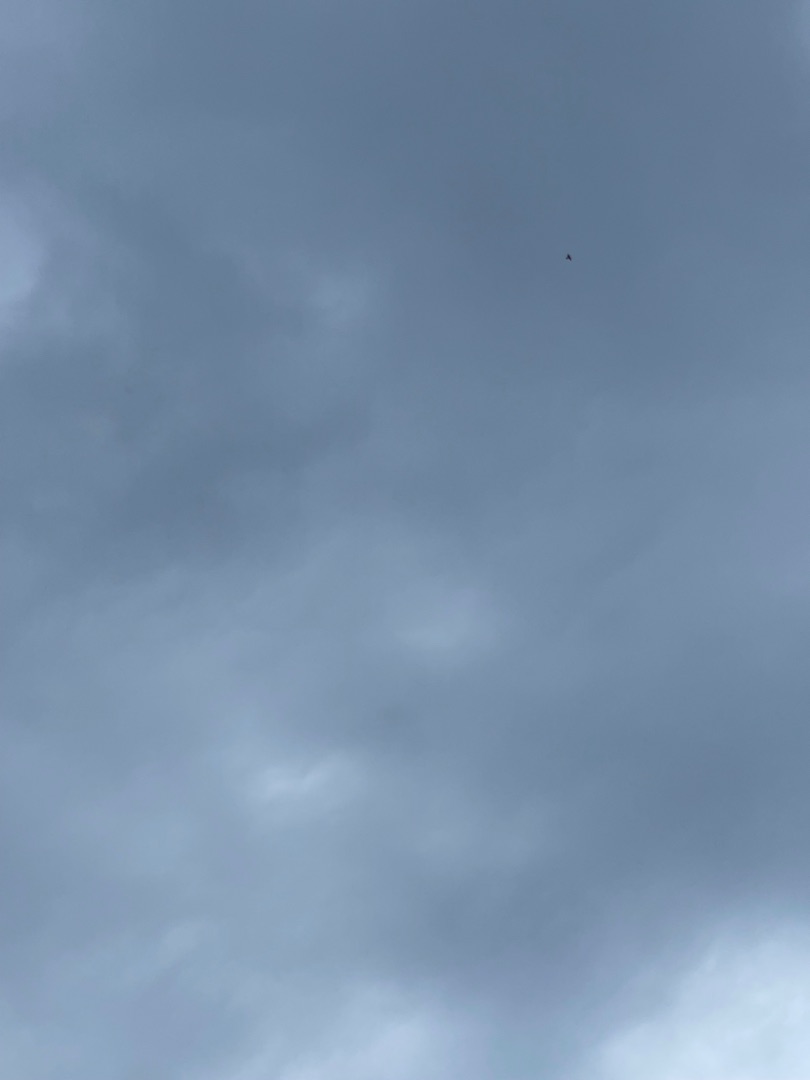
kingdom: Animalia
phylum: Chordata
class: Aves
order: Passeriformes
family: Alaudidae
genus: Alauda
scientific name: Alauda arvensis
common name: Sanglærke
